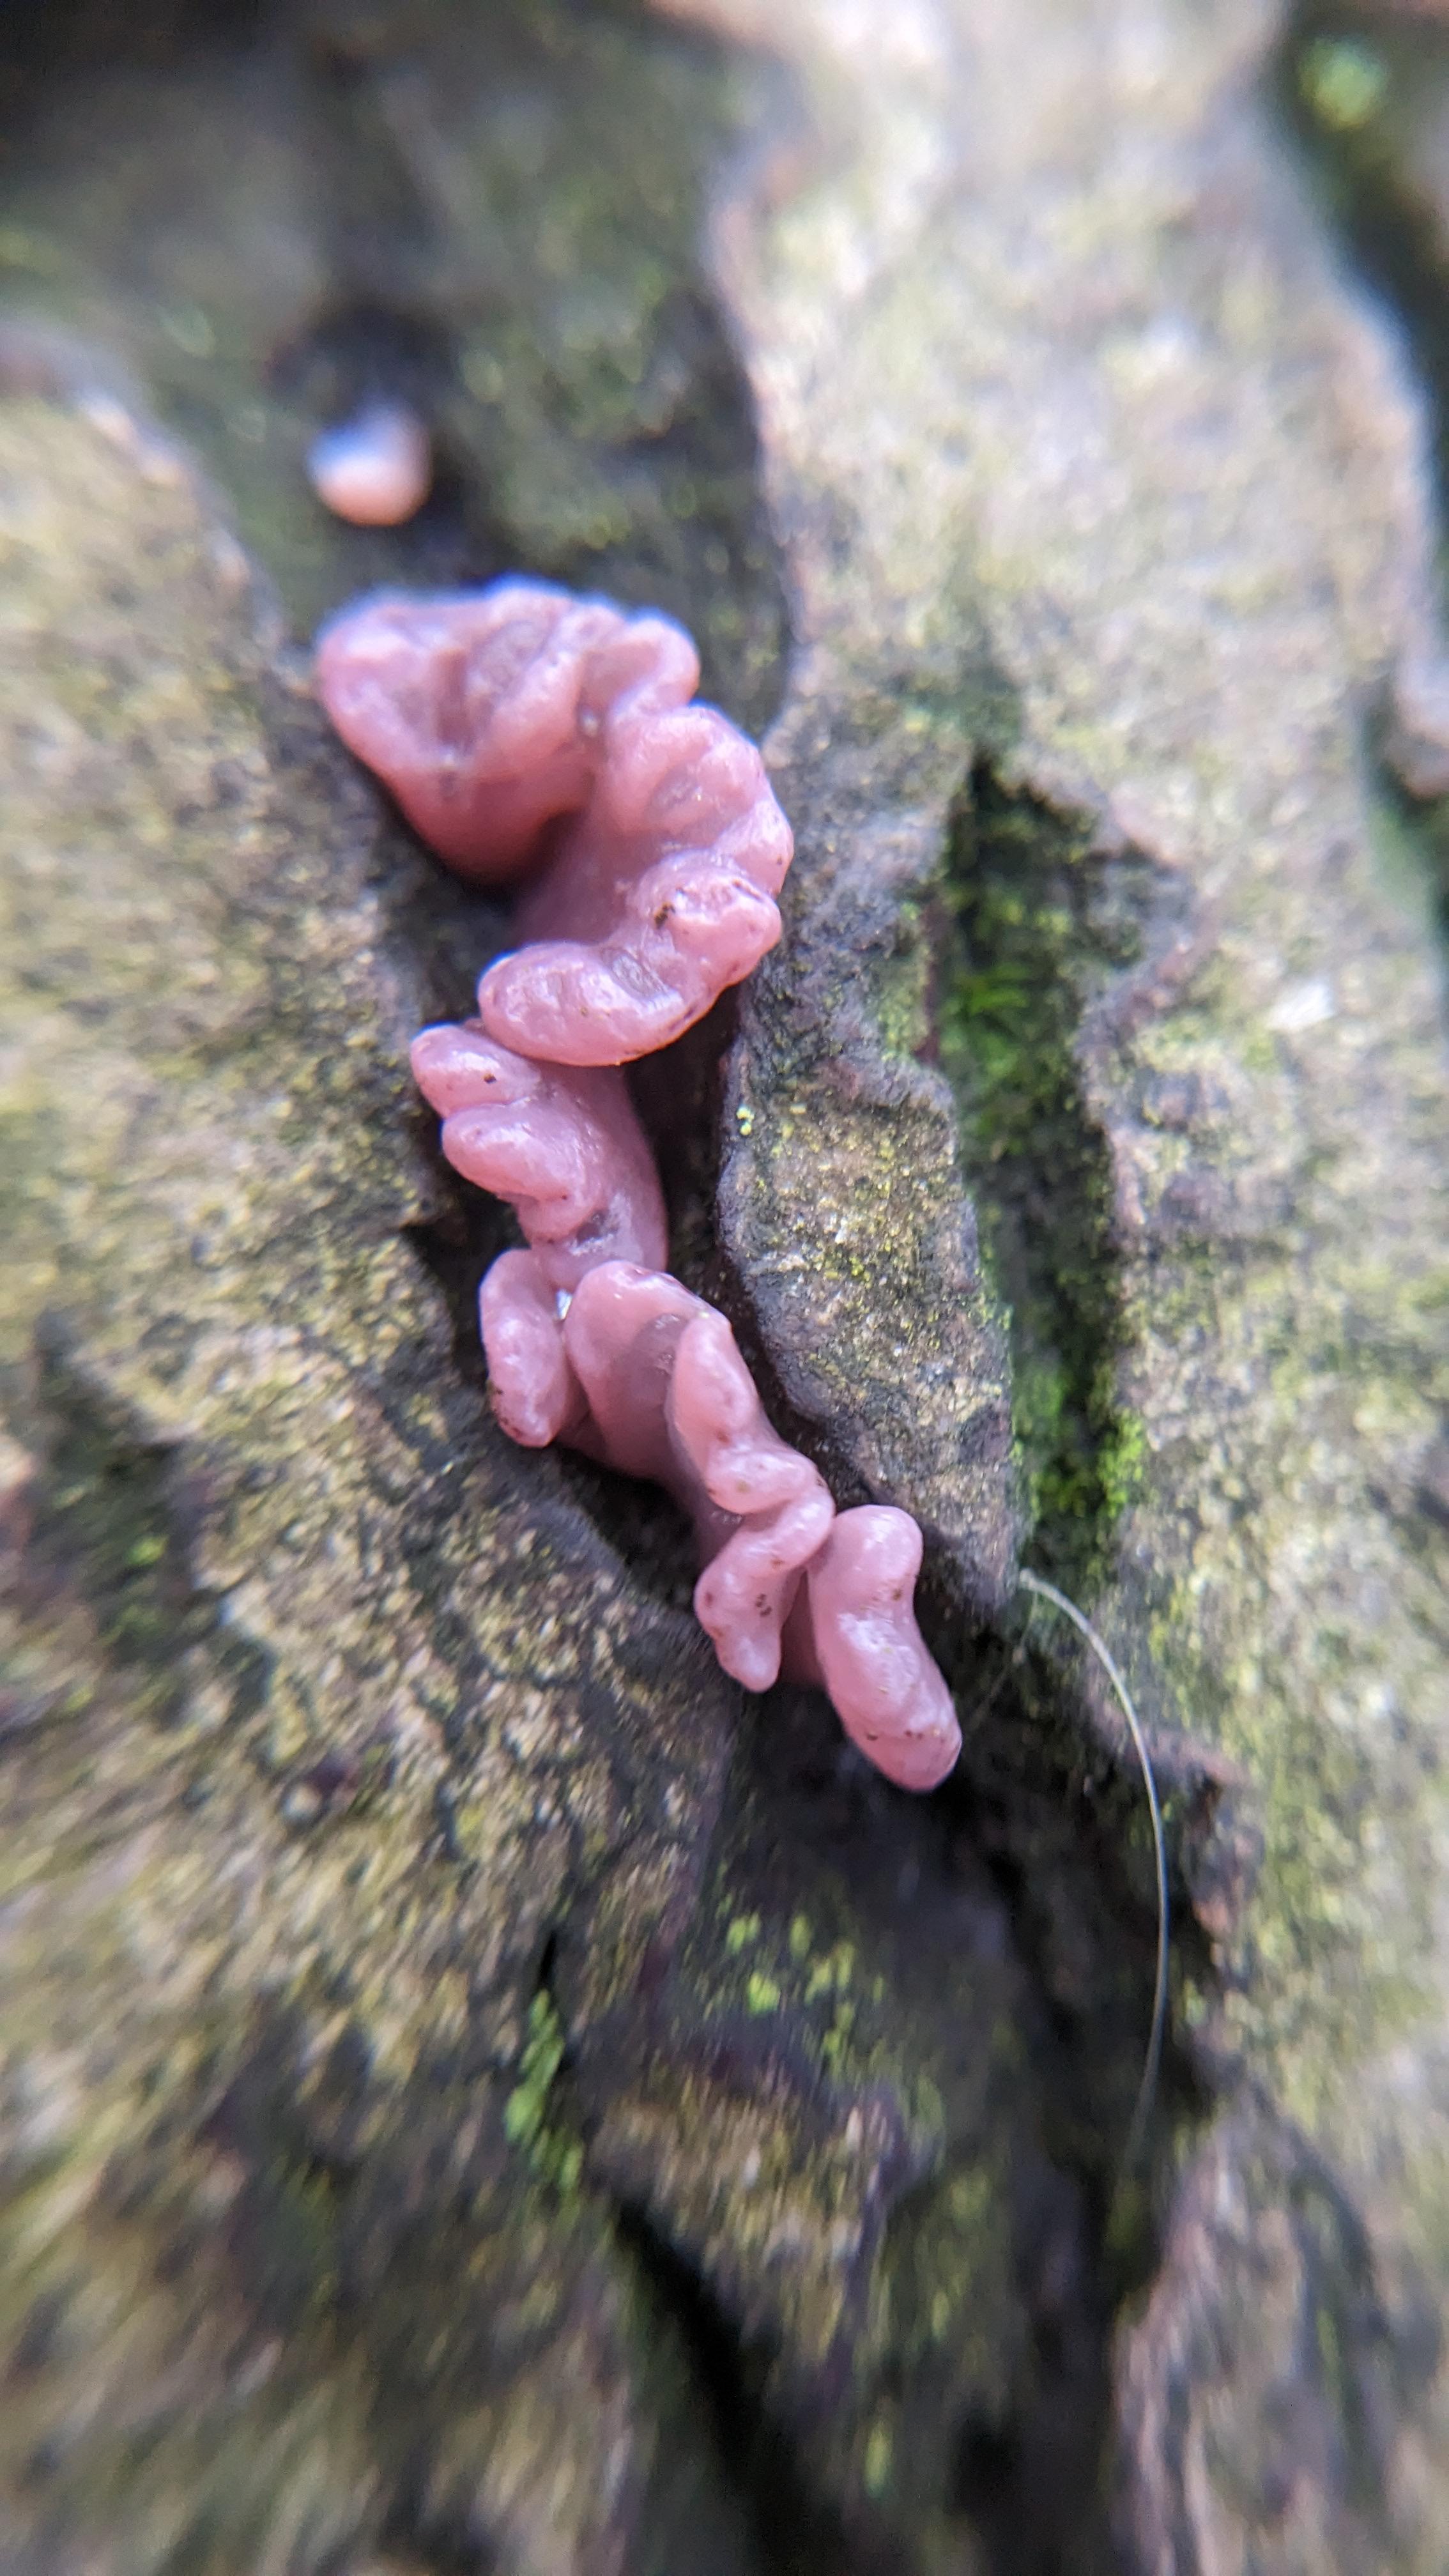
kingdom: Fungi
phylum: Ascomycota
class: Leotiomycetes
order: Helotiales
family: Gelatinodiscaceae
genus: Ascocoryne
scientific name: Ascocoryne sarcoides
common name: rødlilla sejskive
